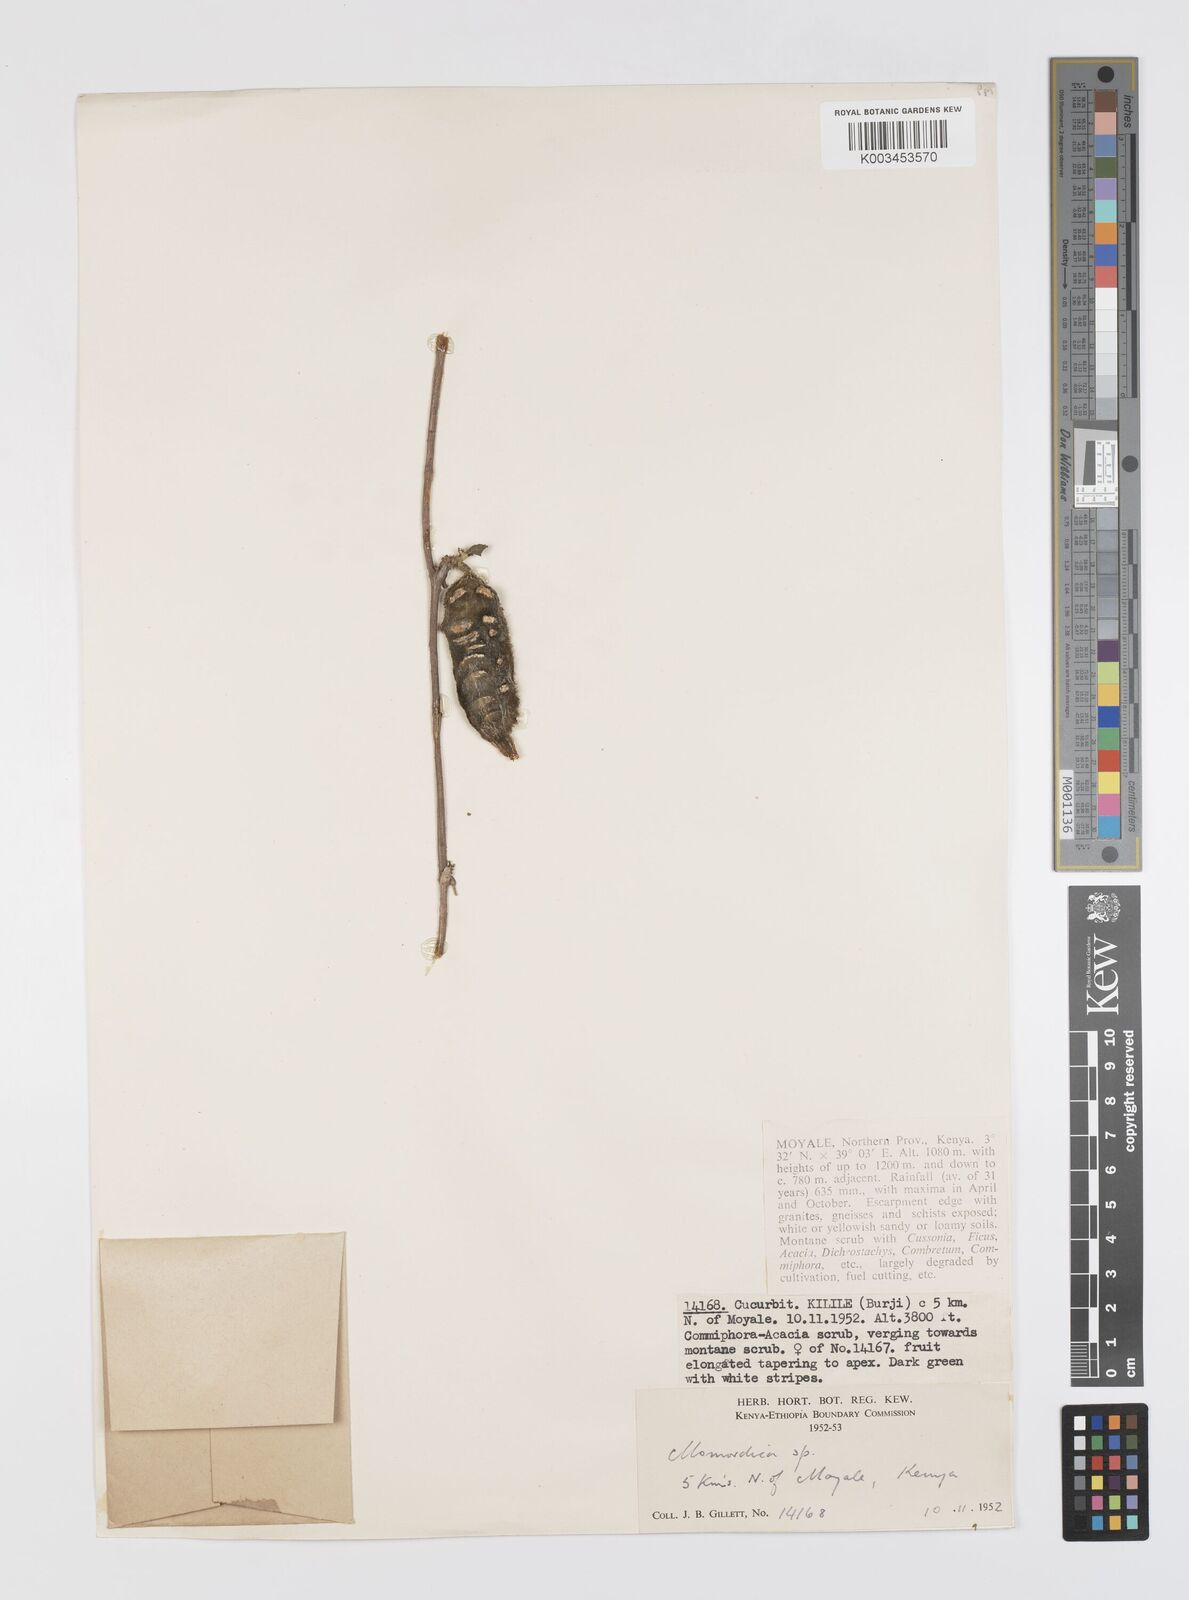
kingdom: Plantae
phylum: Tracheophyta
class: Magnoliopsida
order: Cucurbitales
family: Cucurbitaceae
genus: Momordica
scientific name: Momordica rostrata
